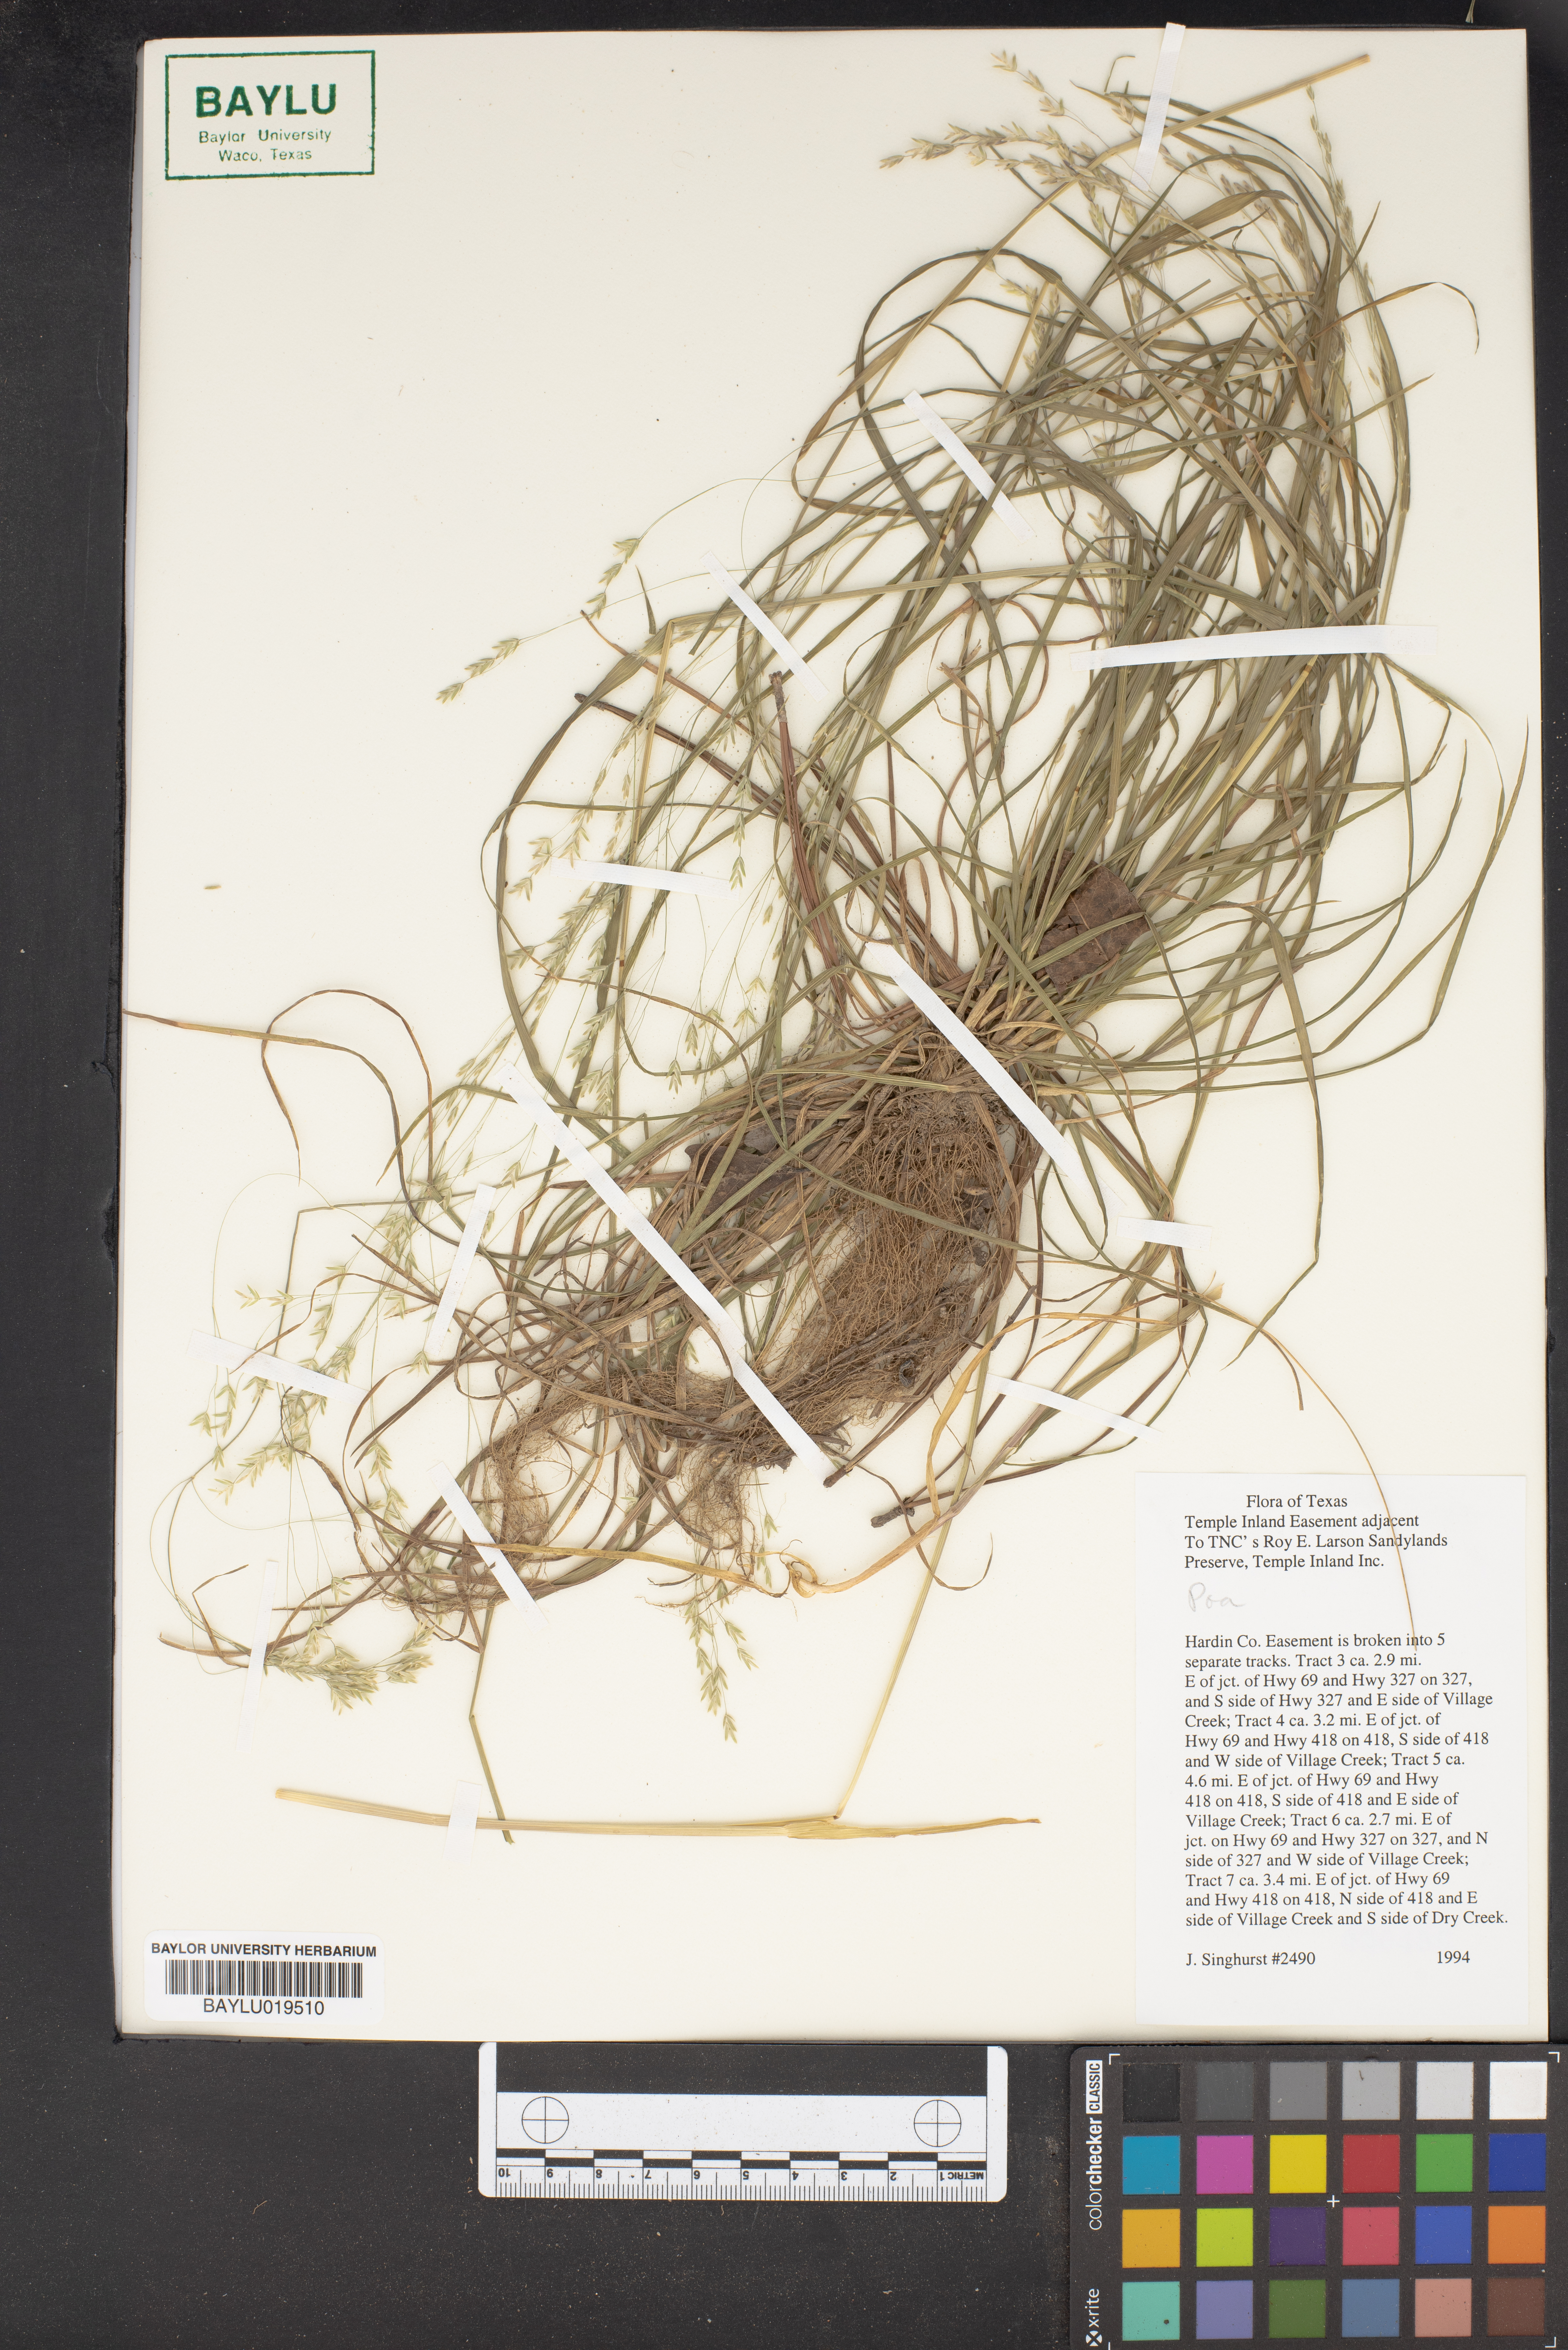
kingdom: Plantae
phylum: Tracheophyta
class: Liliopsida
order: Poales
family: Poaceae
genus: Poa
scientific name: Poa
